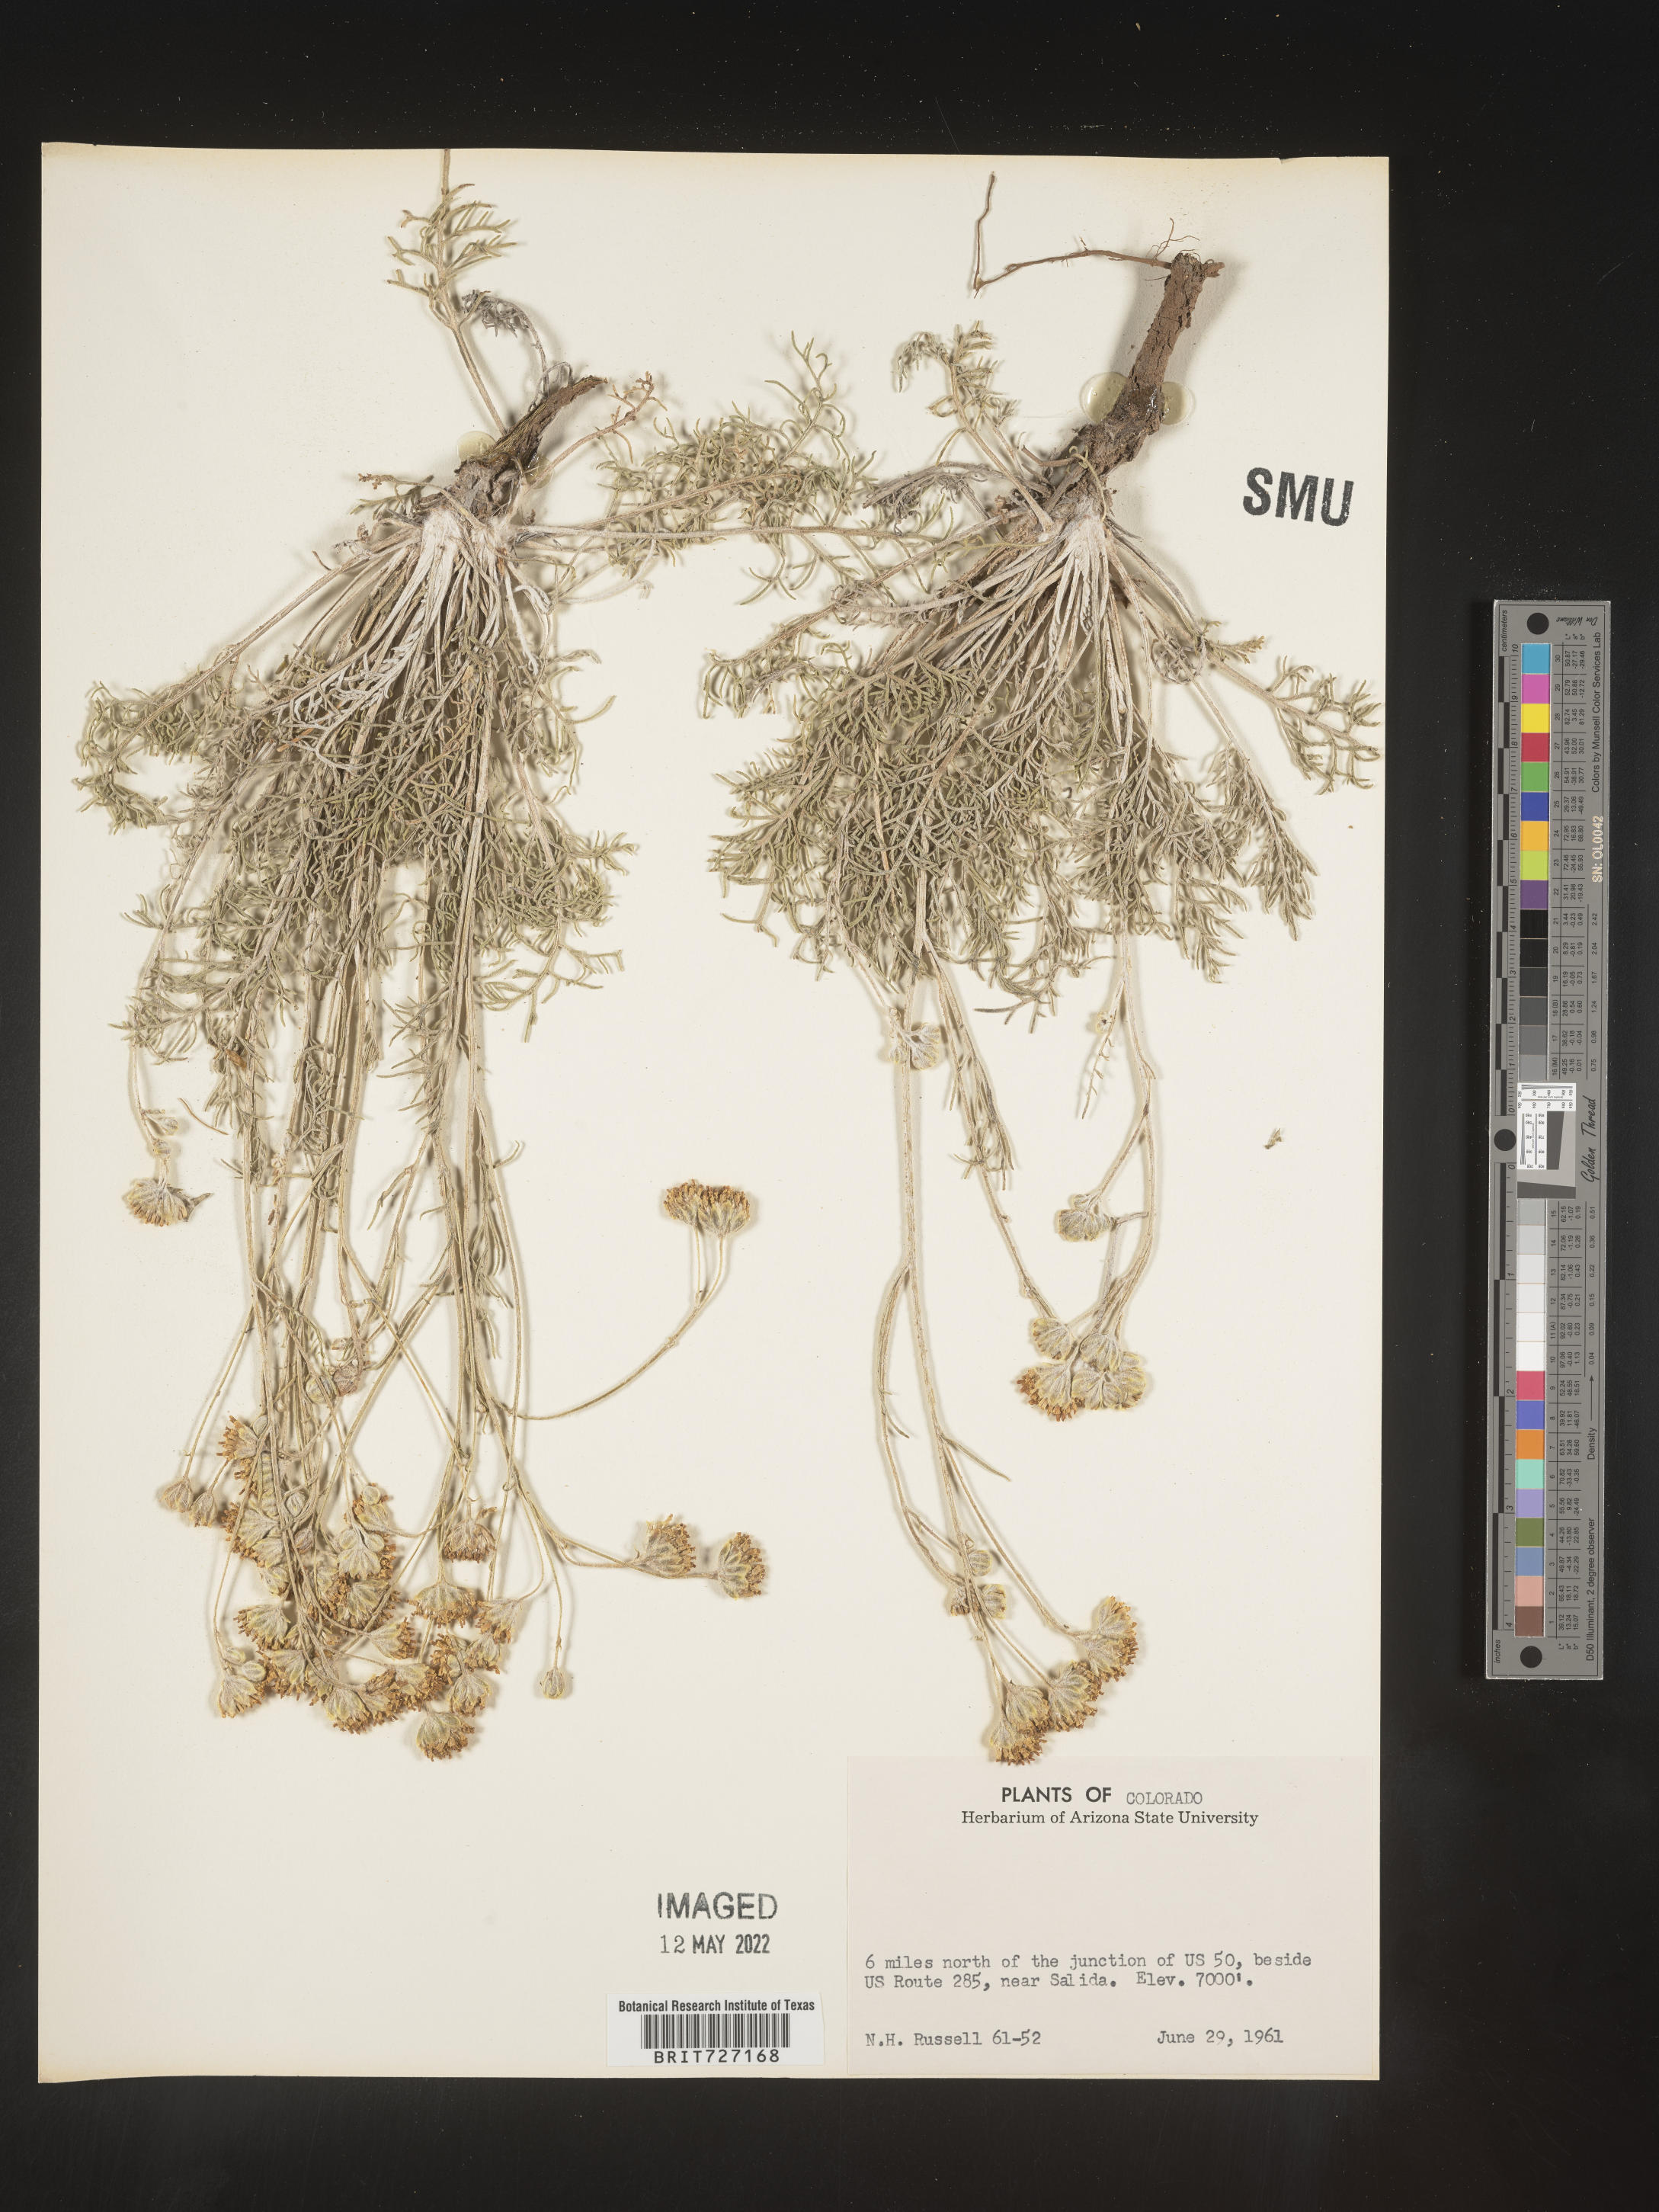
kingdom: Plantae
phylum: Tracheophyta
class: Magnoliopsida
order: Asterales
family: Asteraceae
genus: Hymenopappus
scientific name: Hymenopappus
